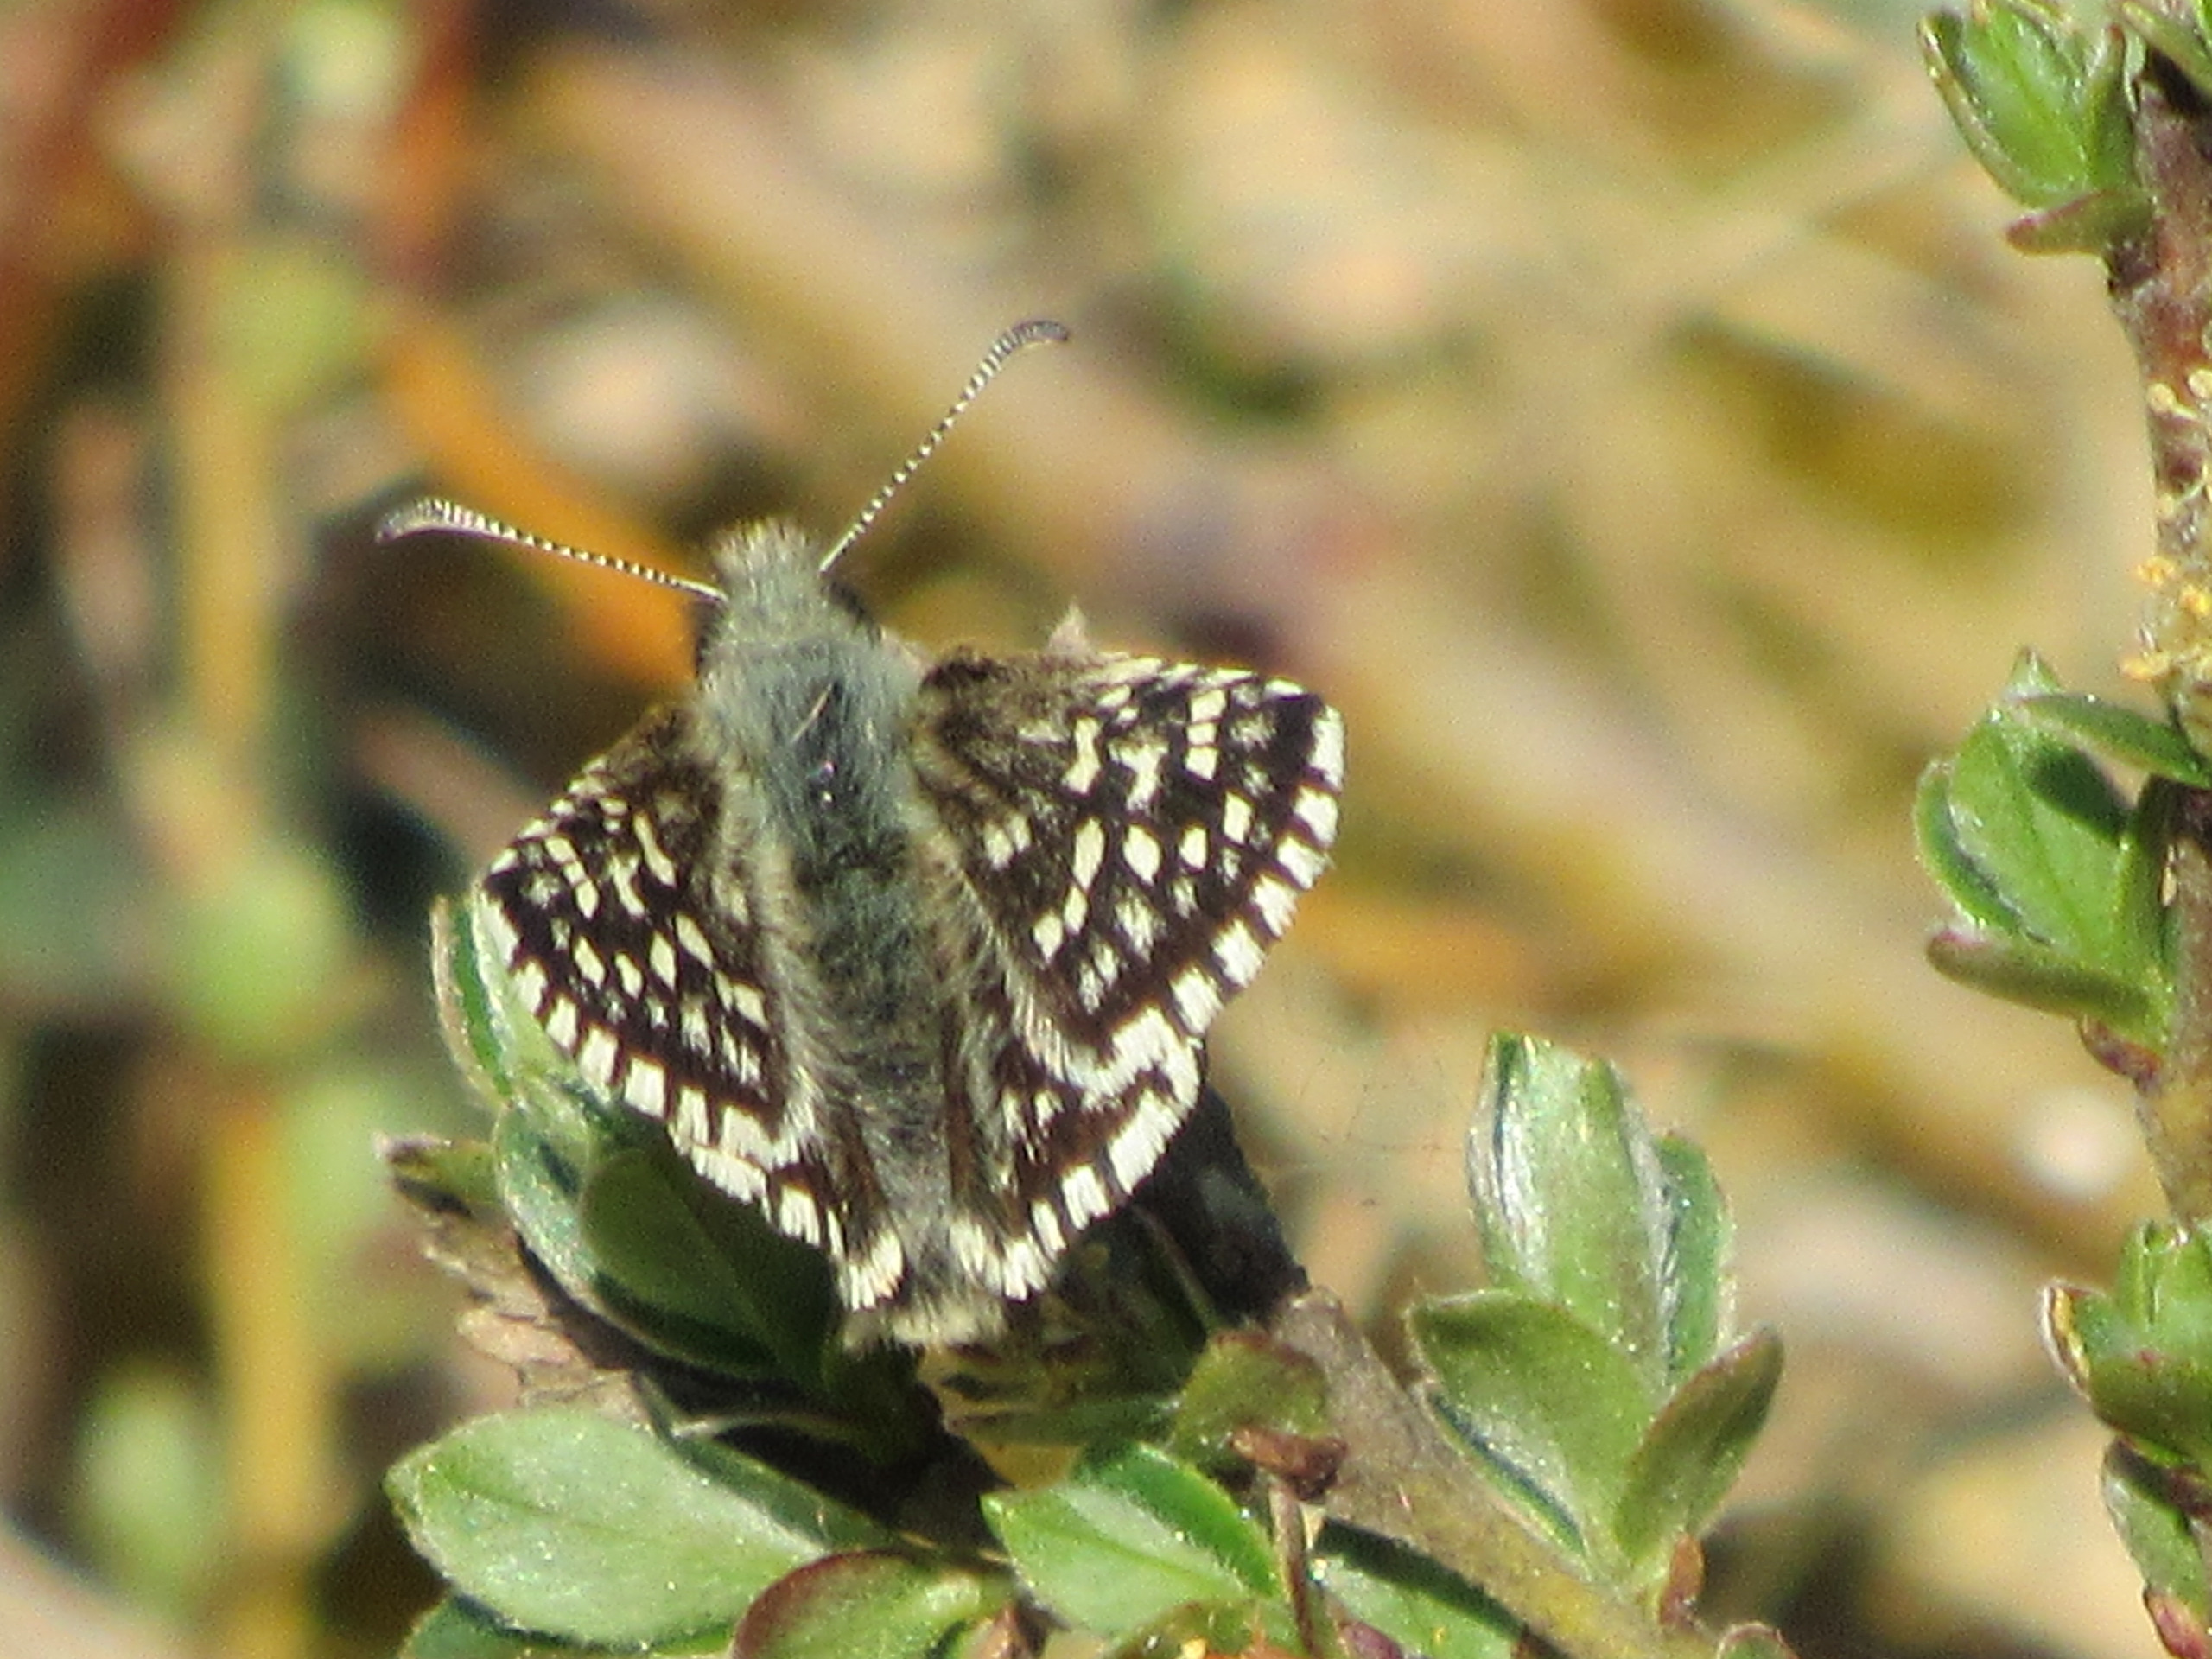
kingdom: Animalia
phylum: Arthropoda
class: Insecta
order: Lepidoptera
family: Hesperiidae
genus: Pyrgus
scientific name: Pyrgus malvae
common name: Spættet bredpande
